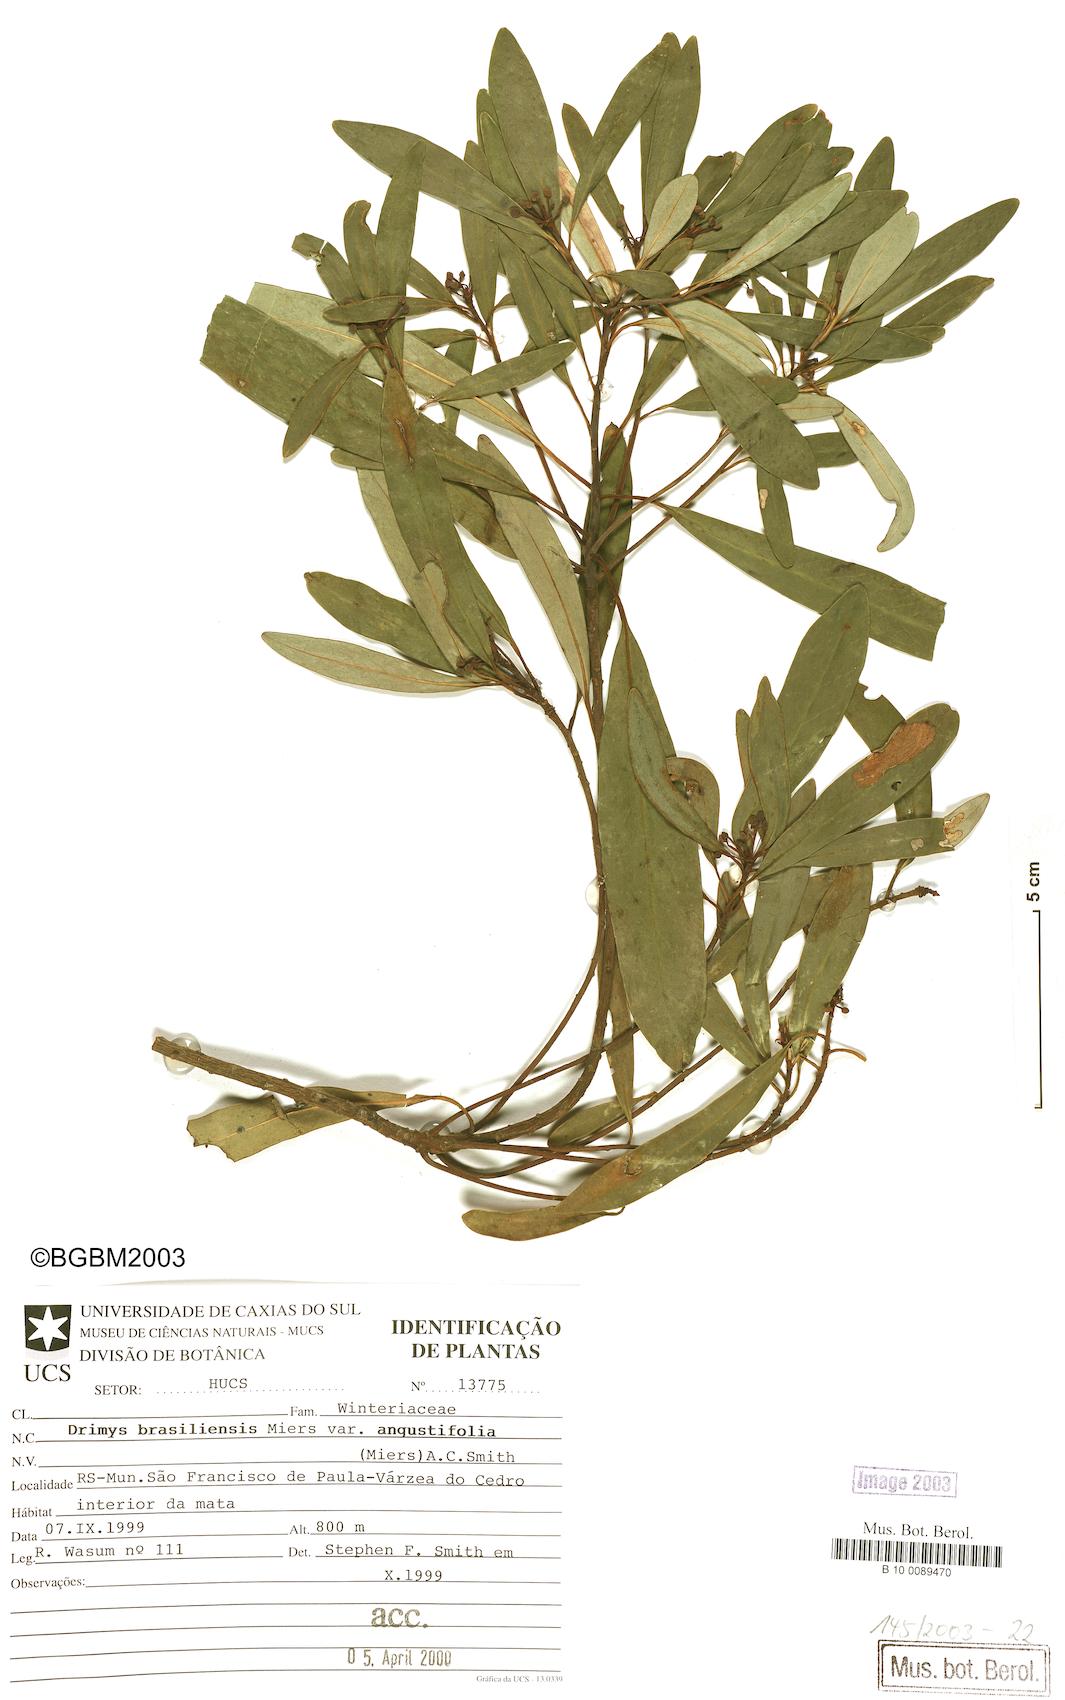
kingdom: Plantae
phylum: Tracheophyta
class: Magnoliopsida
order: Canellales
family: Winteraceae
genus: Drimys
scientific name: Drimys angustifolia
